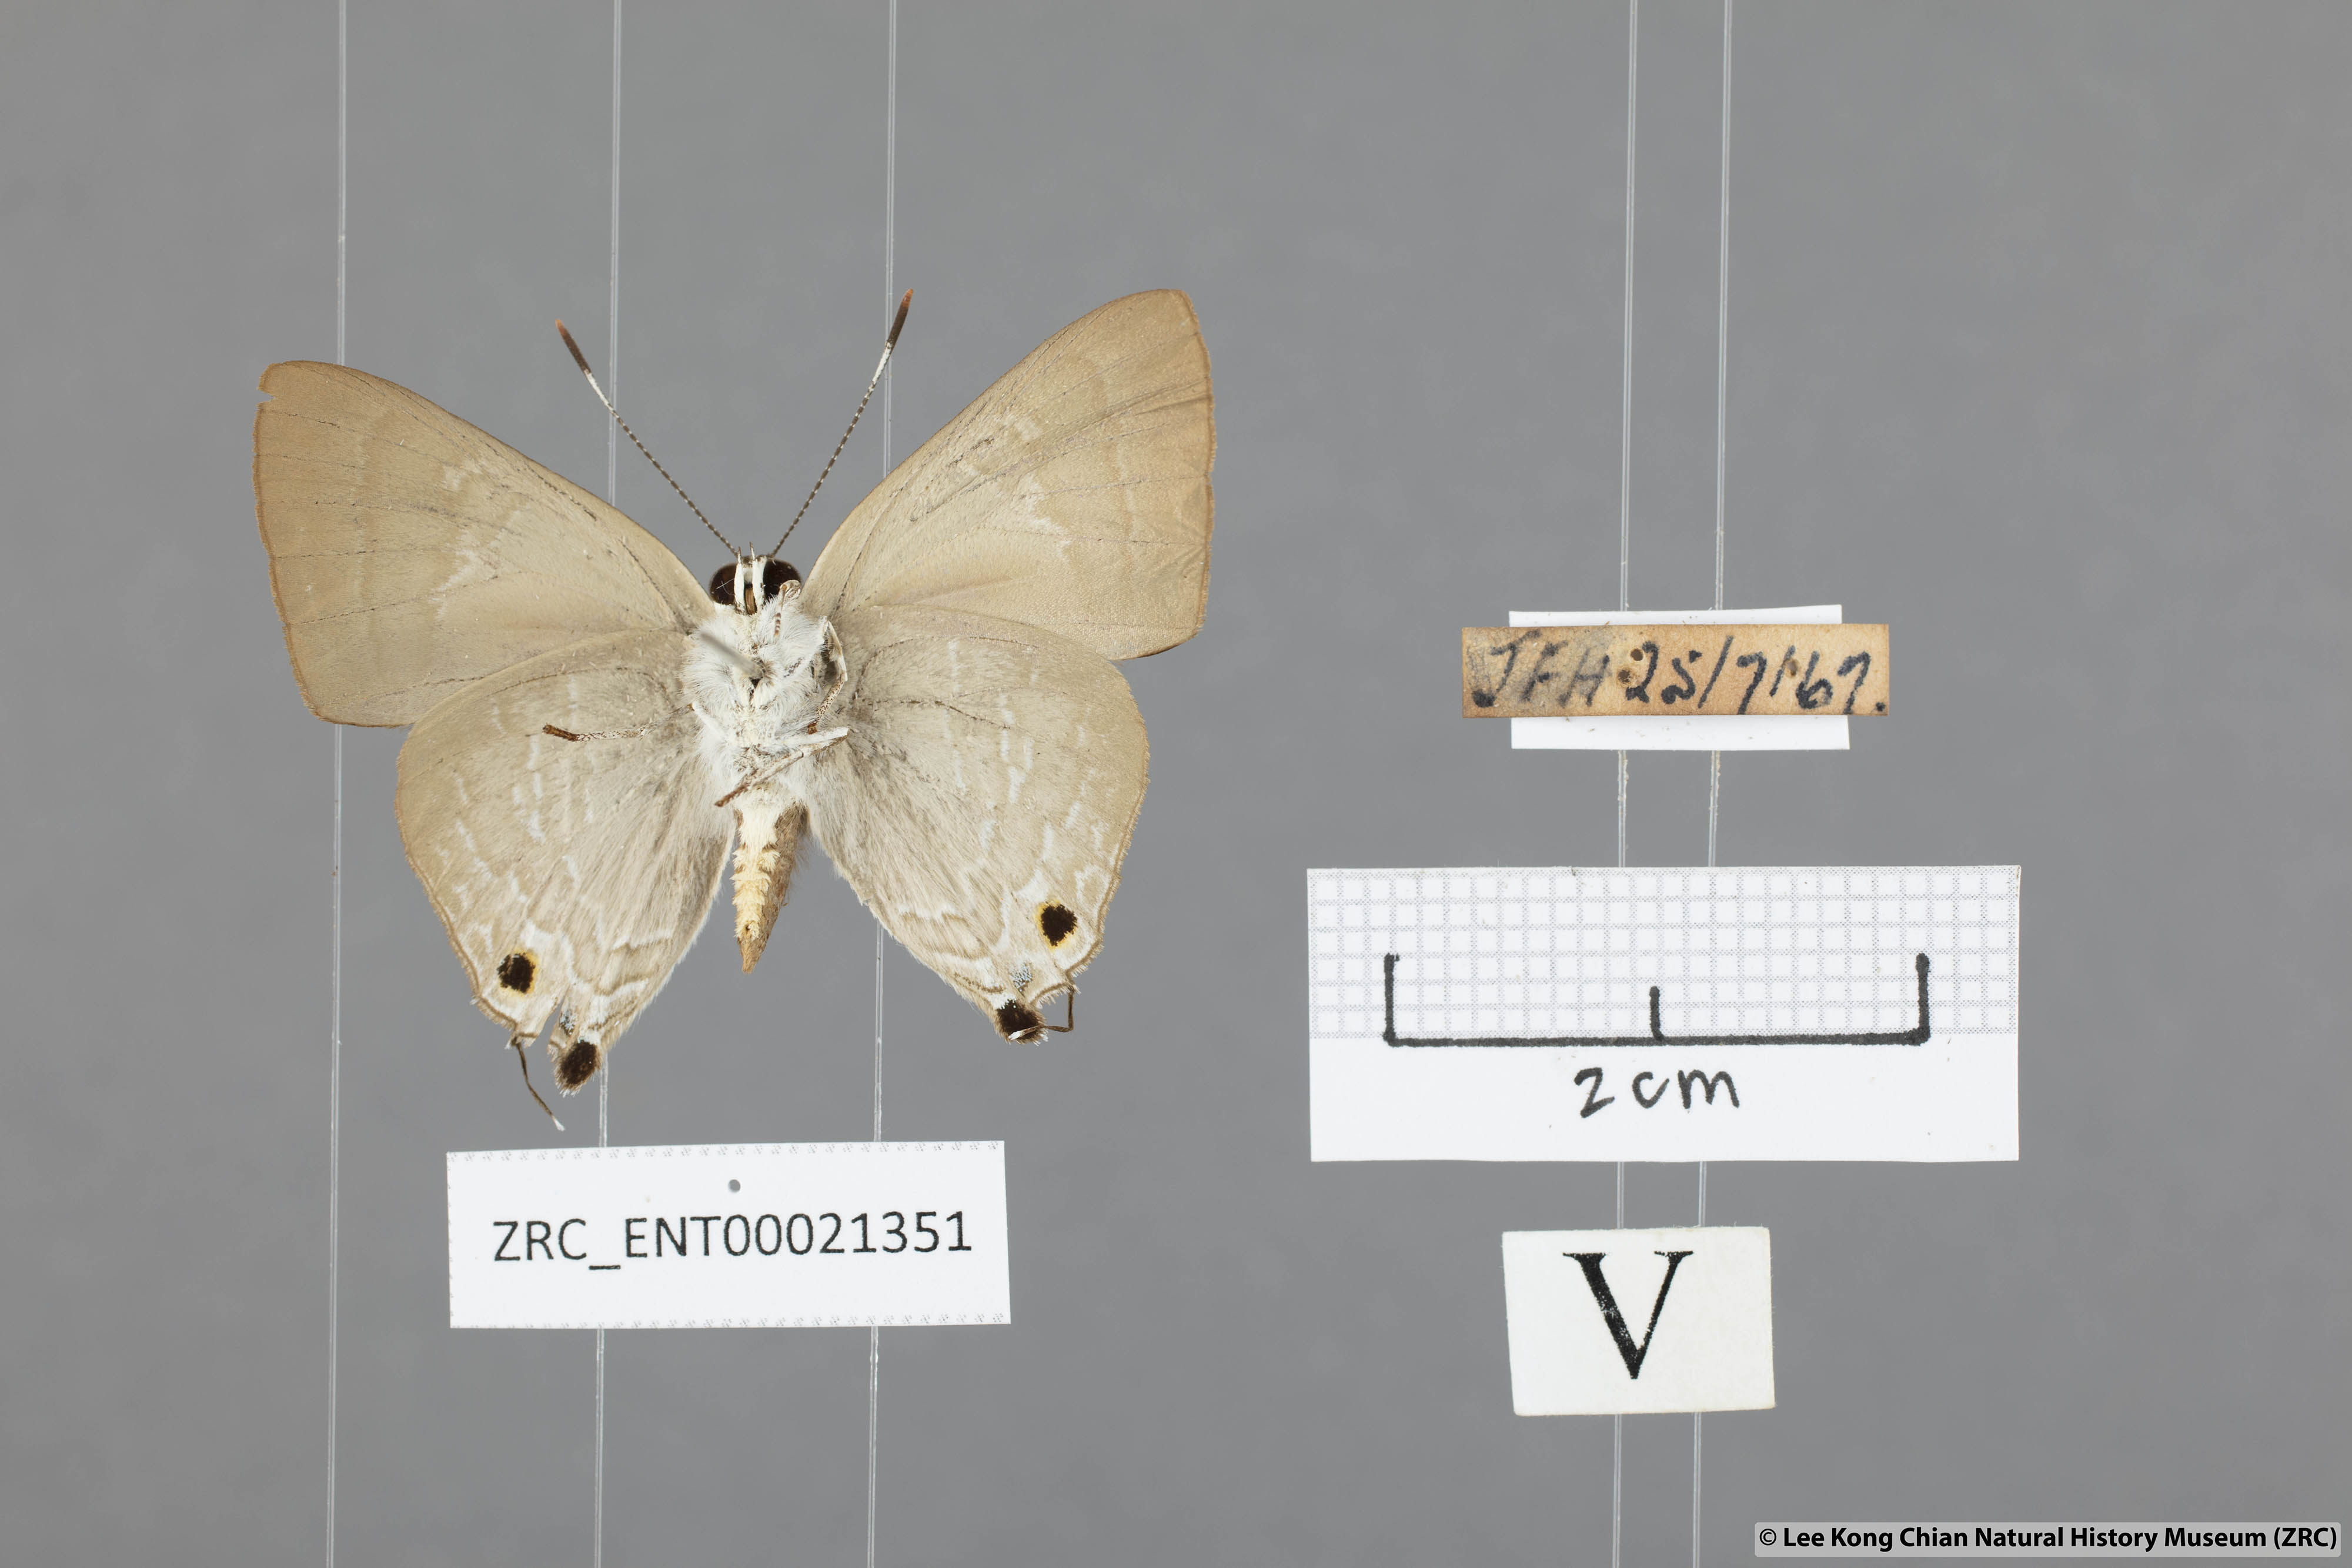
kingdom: Animalia
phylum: Arthropoda
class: Insecta
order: Lepidoptera
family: Lycaenidae
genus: Deudorix
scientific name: Deudorix staudingeri
